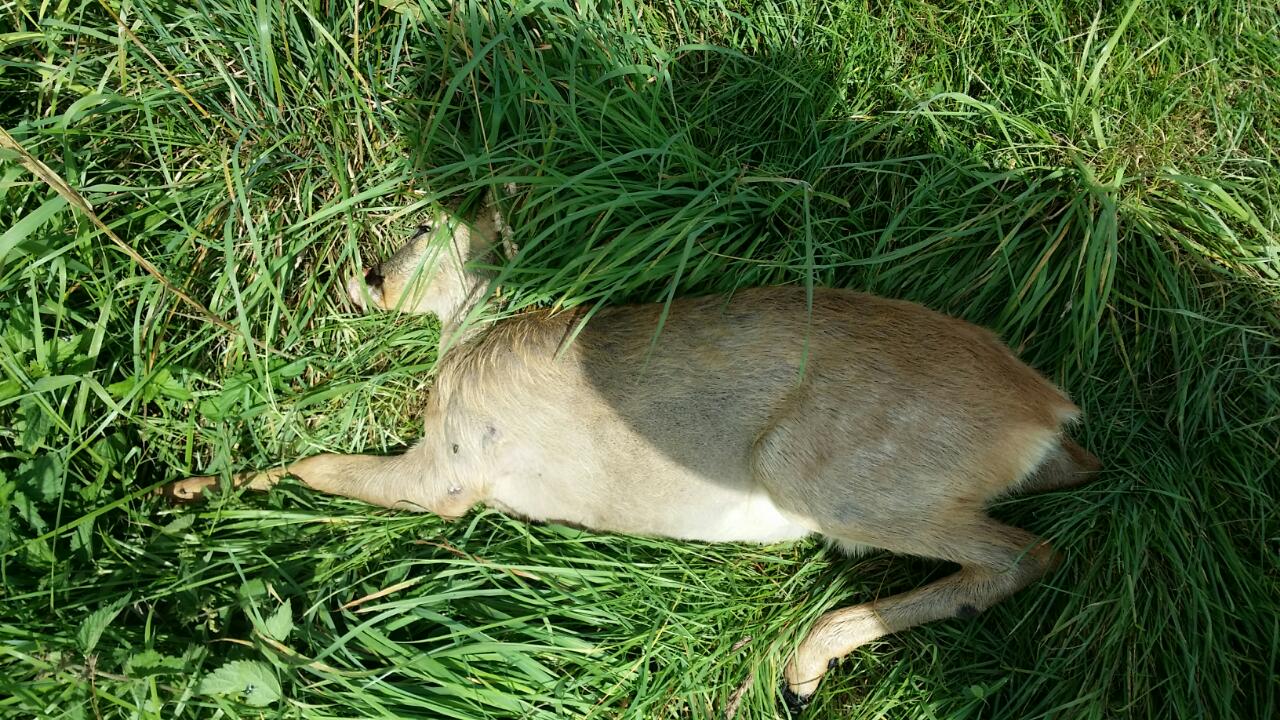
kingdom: Animalia
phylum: Chordata
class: Mammalia
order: Artiodactyla
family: Cervidae
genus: Capreolus
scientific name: Capreolus capreolus
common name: Western roe deer
